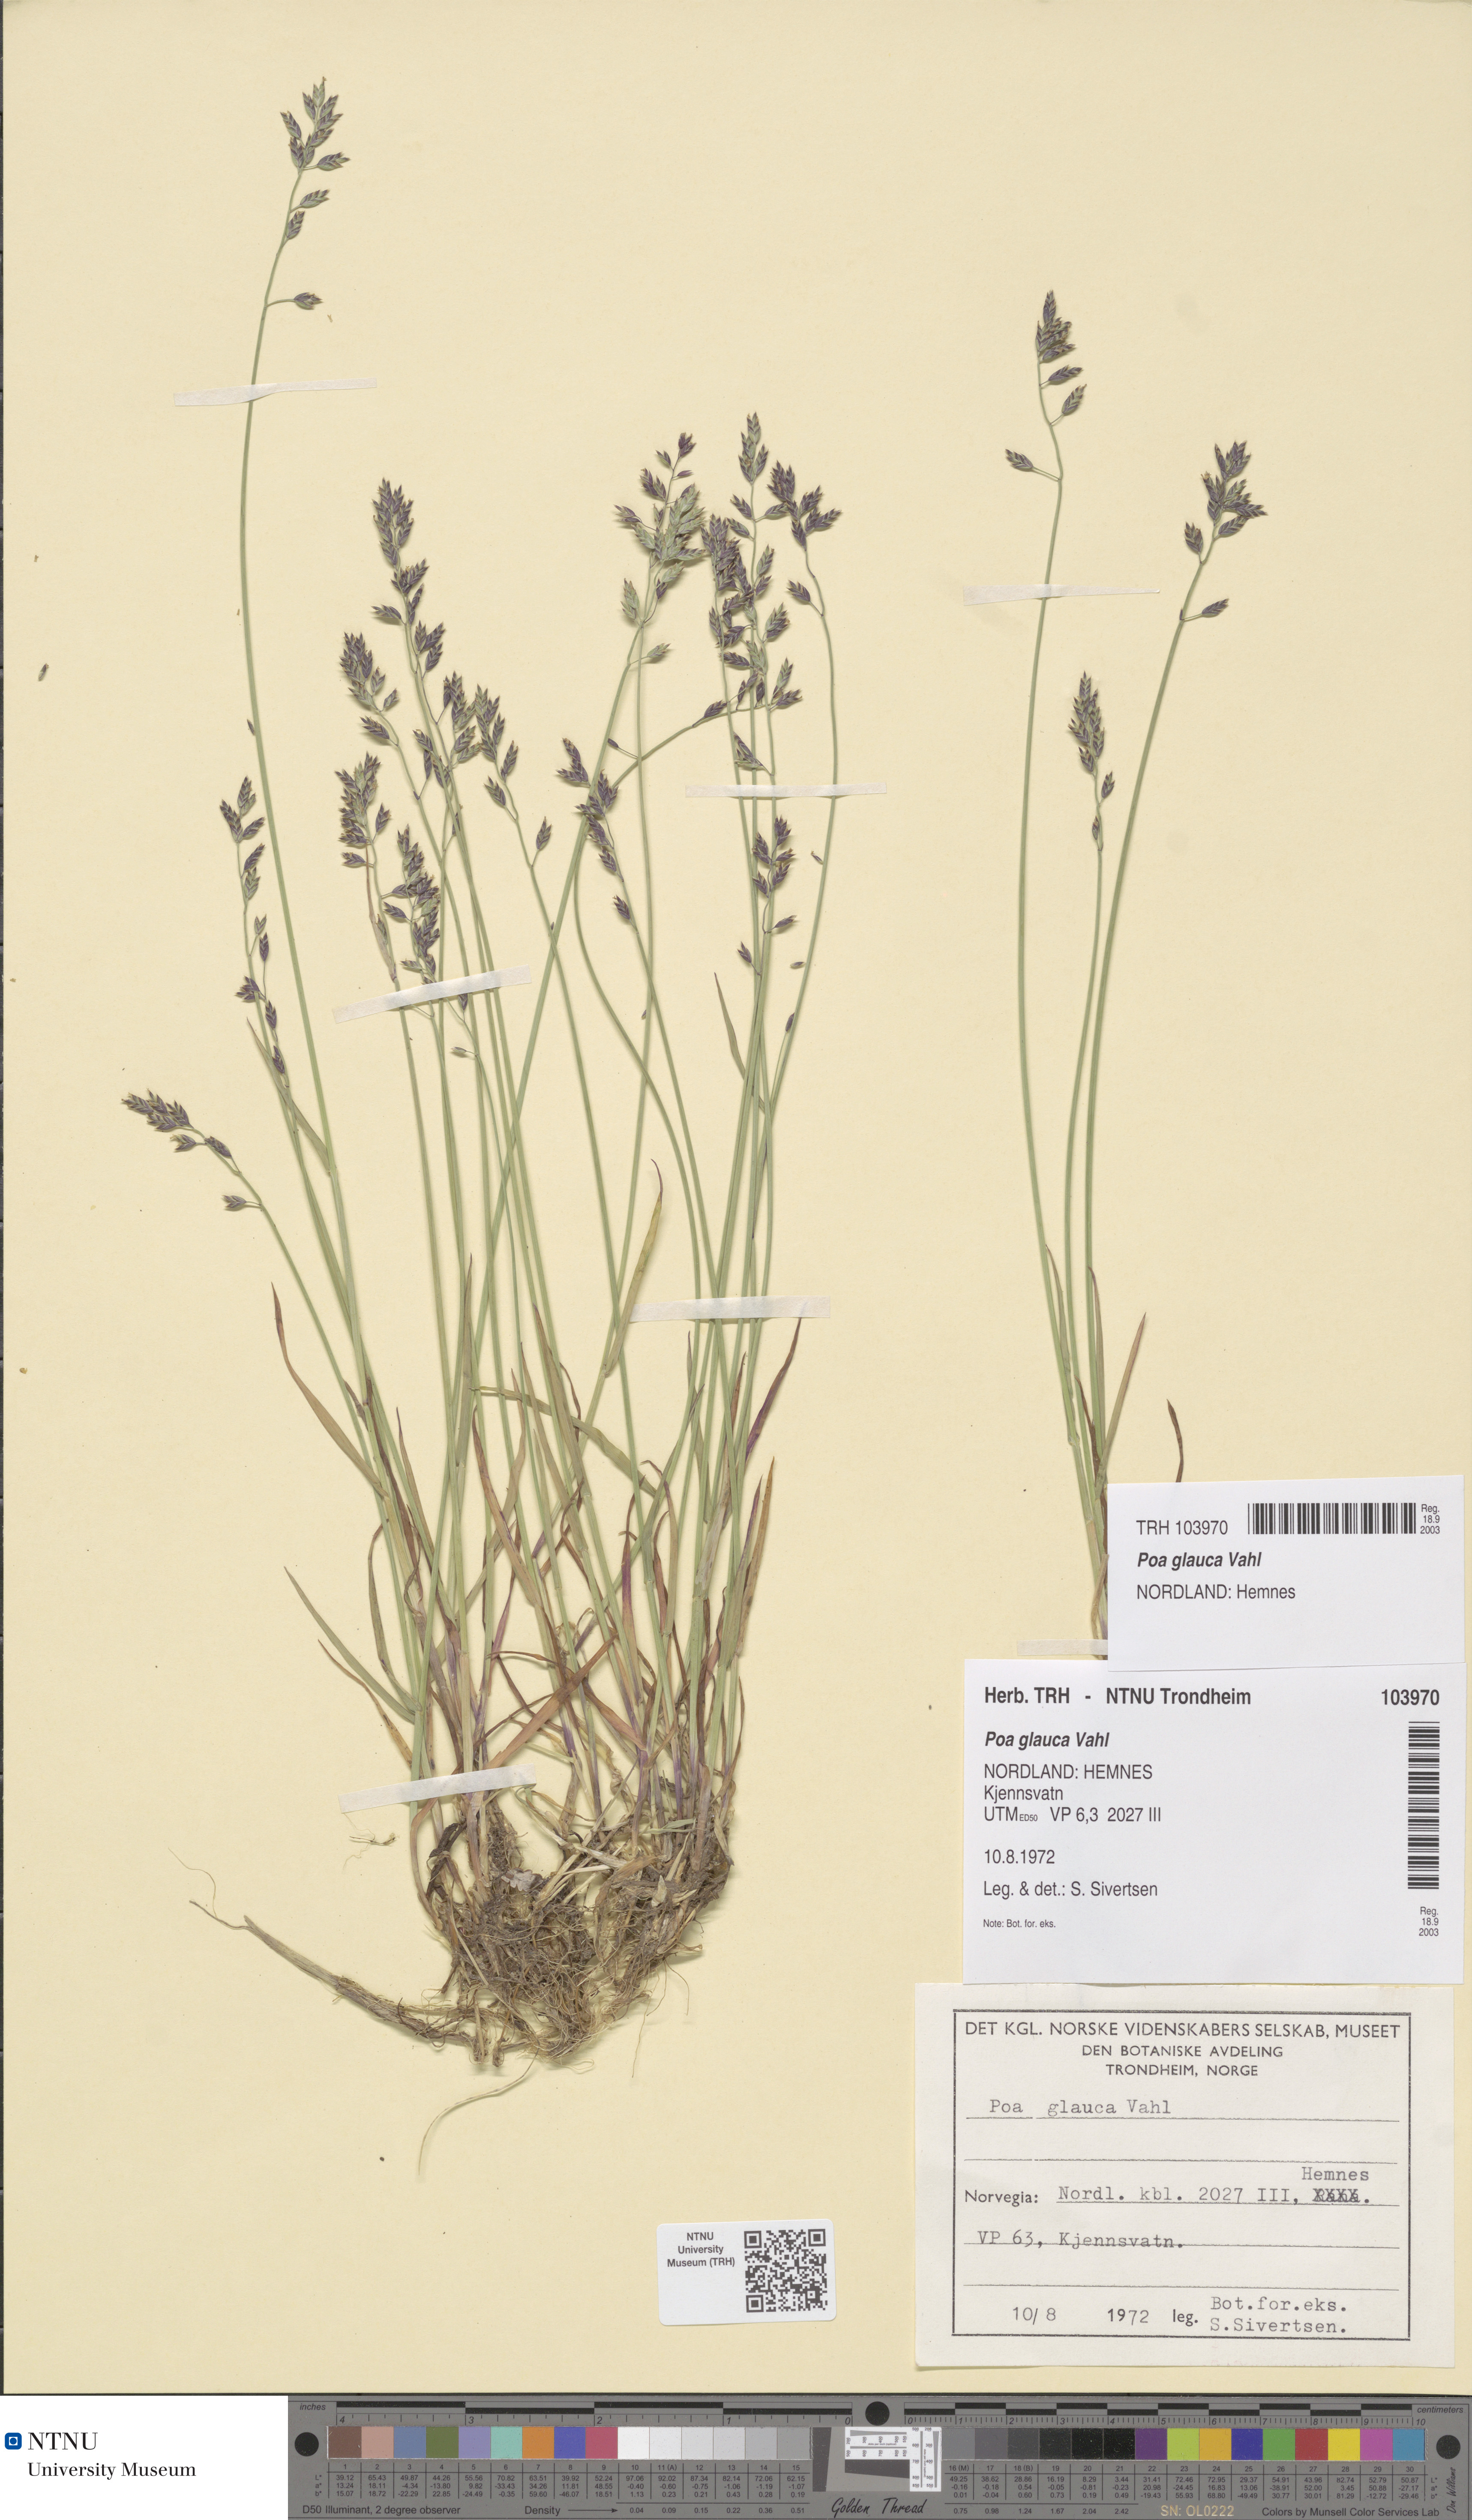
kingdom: Plantae
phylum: Tracheophyta
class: Liliopsida
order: Poales
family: Poaceae
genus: Poa
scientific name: Poa glauca
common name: Glaucous bluegrass
